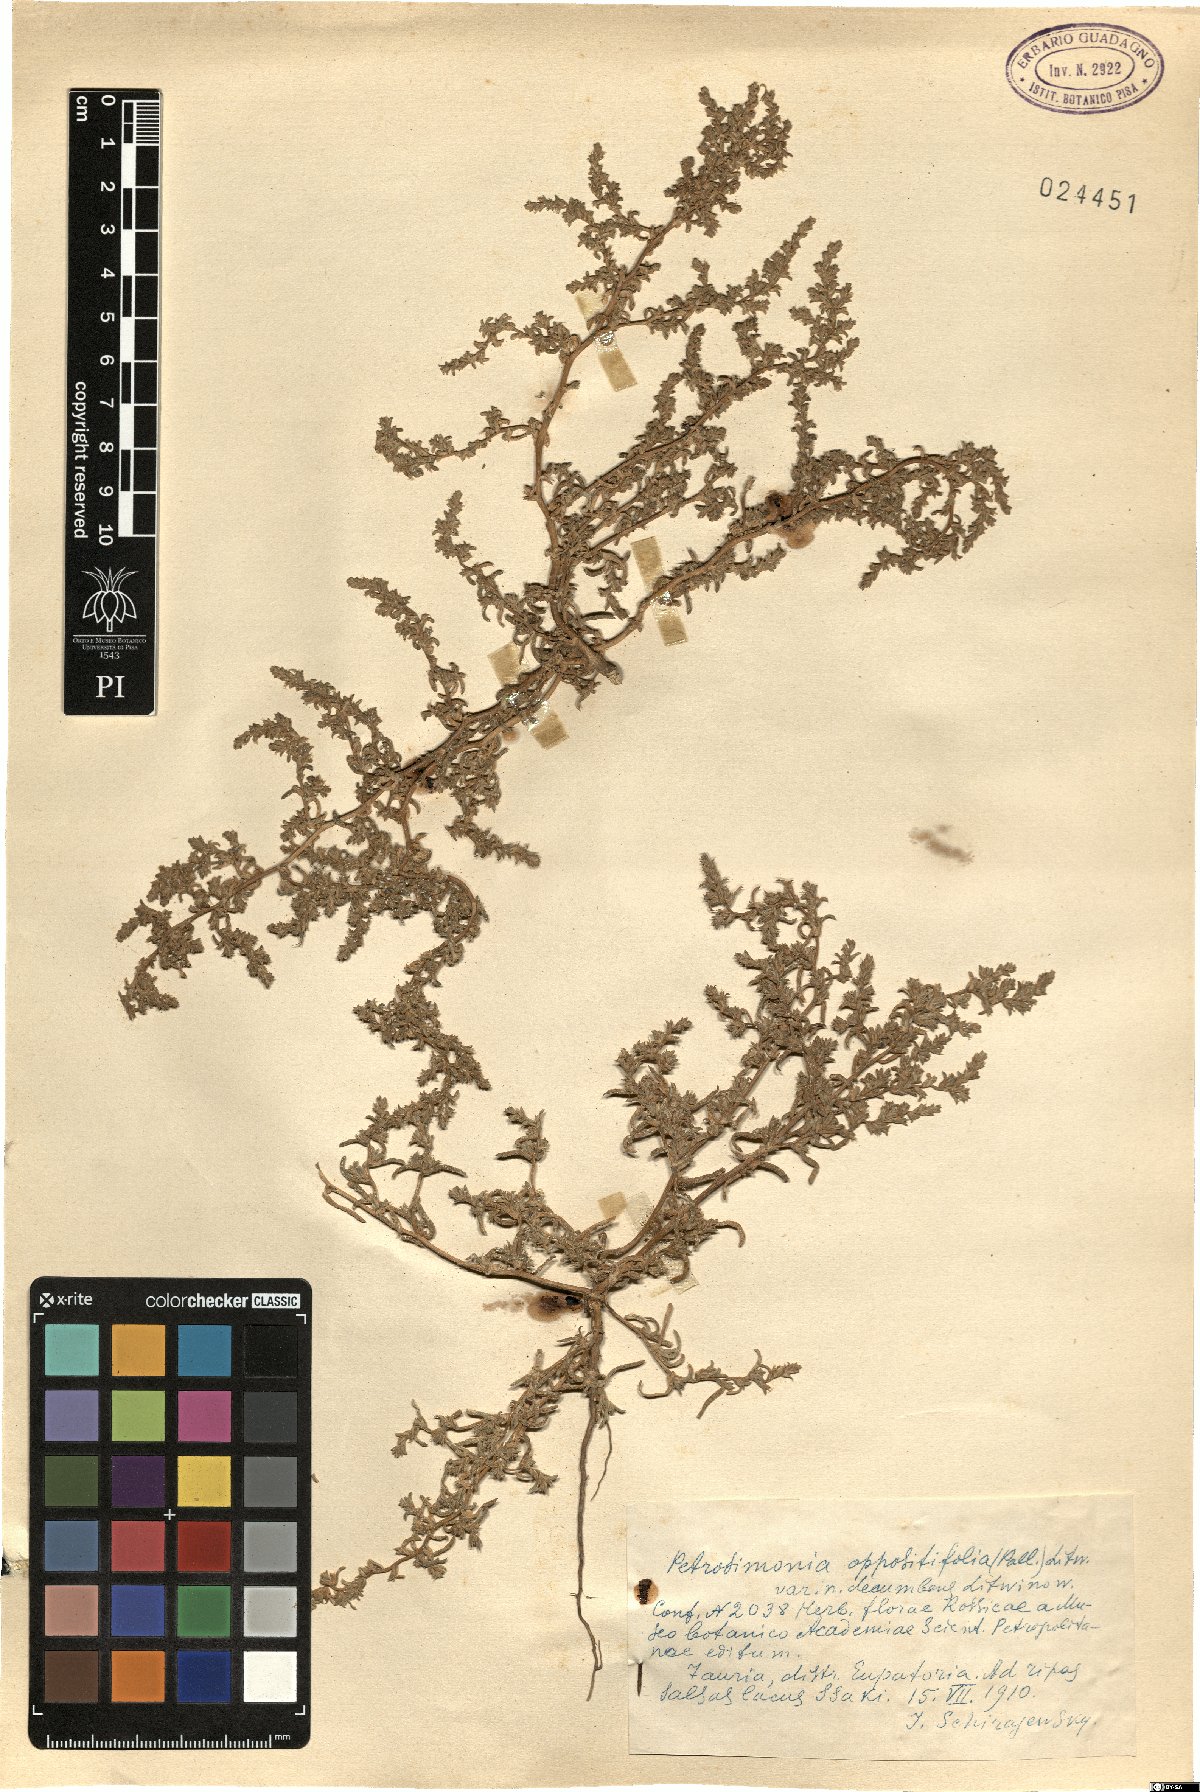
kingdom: Plantae
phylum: Tracheophyta
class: Magnoliopsida
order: Caryophyllales
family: Amaranthaceae
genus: Petrosimonia
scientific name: Petrosimonia oppositifolia
